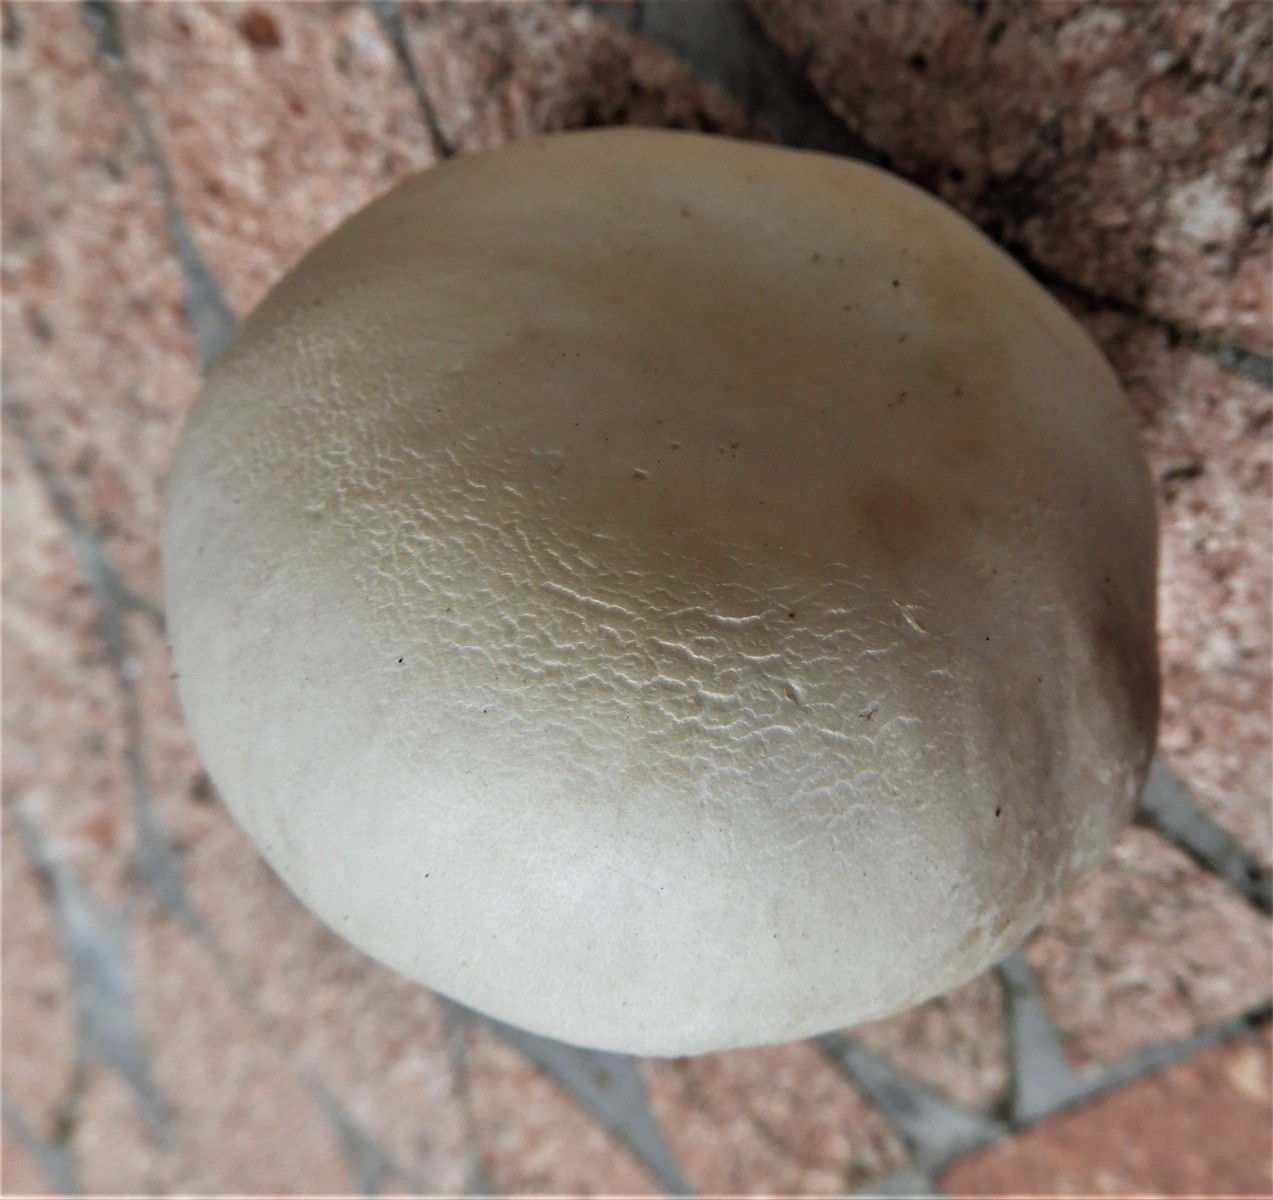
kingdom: Fungi
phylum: Basidiomycota
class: Agaricomycetes
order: Agaricales
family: Agaricaceae
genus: Leucoagaricus
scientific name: Leucoagaricus leucothites
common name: rosabladet silkehat
